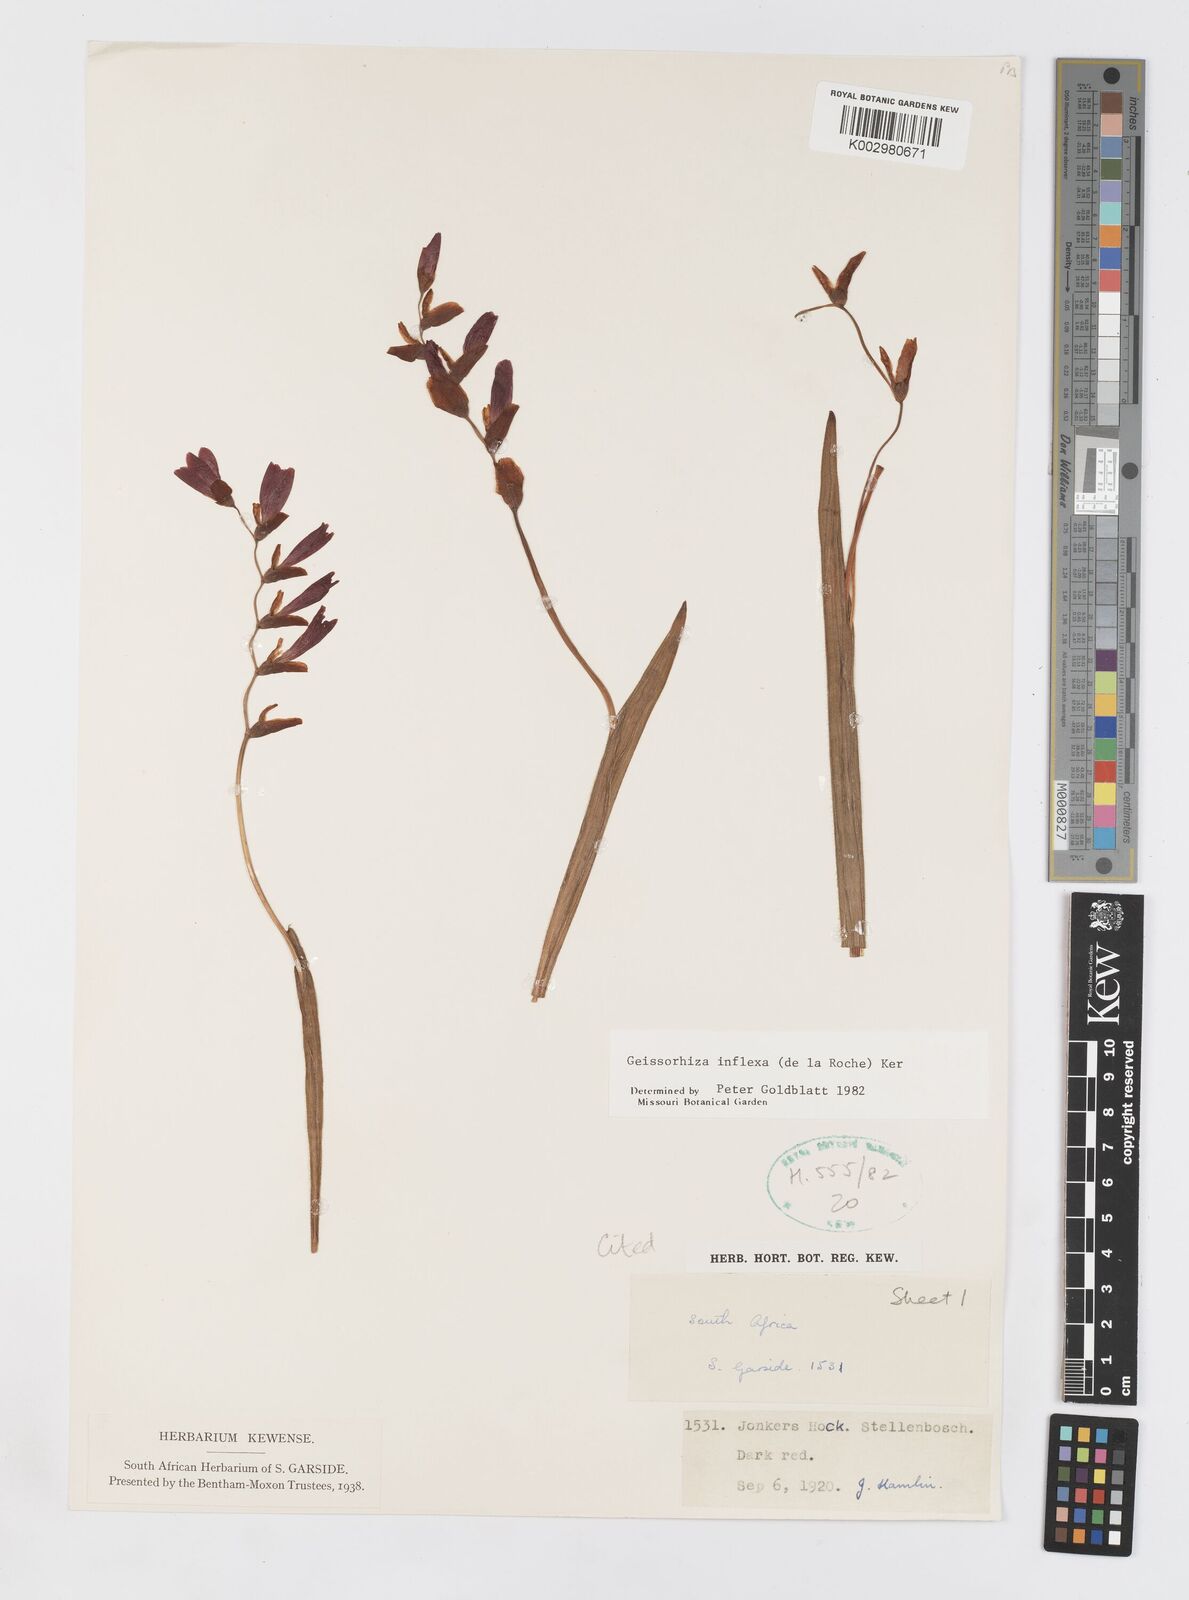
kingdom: Plantae
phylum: Tracheophyta
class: Liliopsida
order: Asparagales
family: Iridaceae
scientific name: Iridaceae
